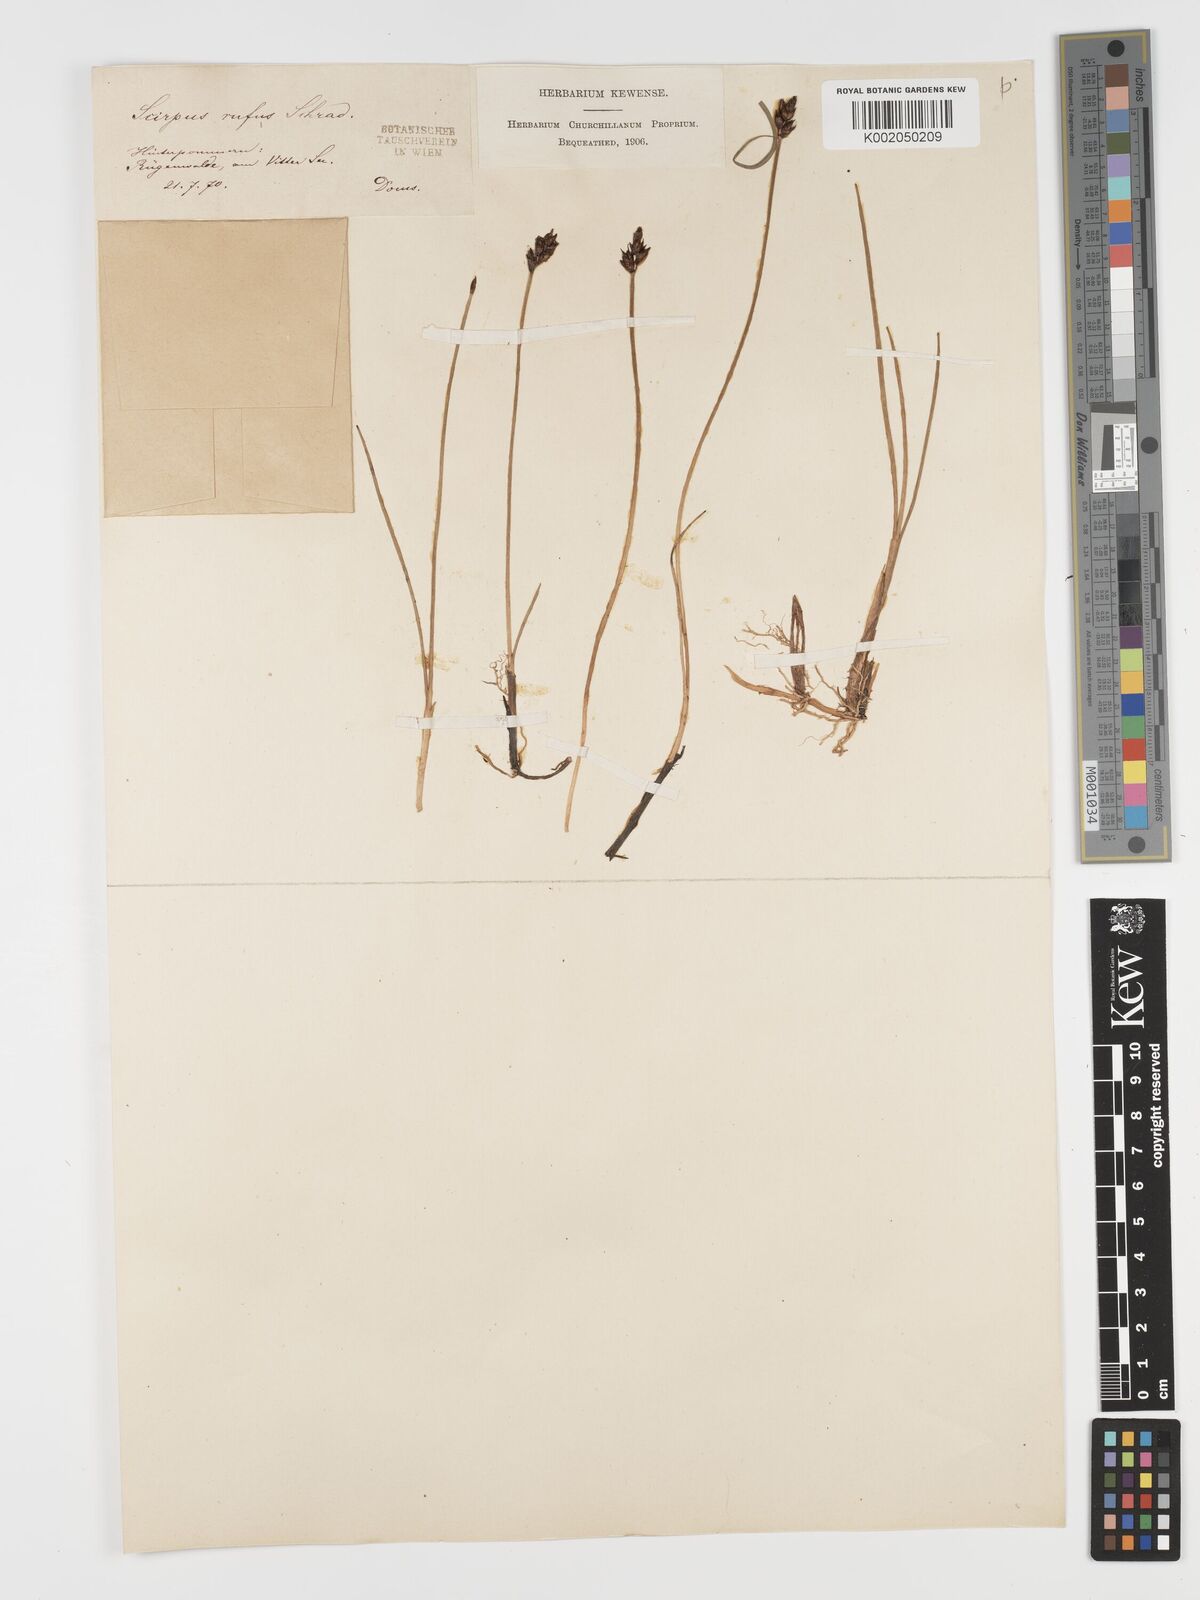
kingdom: Plantae
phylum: Tracheophyta
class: Liliopsida
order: Poales
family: Cyperaceae
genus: Blysmus
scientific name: Blysmus rufus
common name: Saltmarsh flat-sedge
